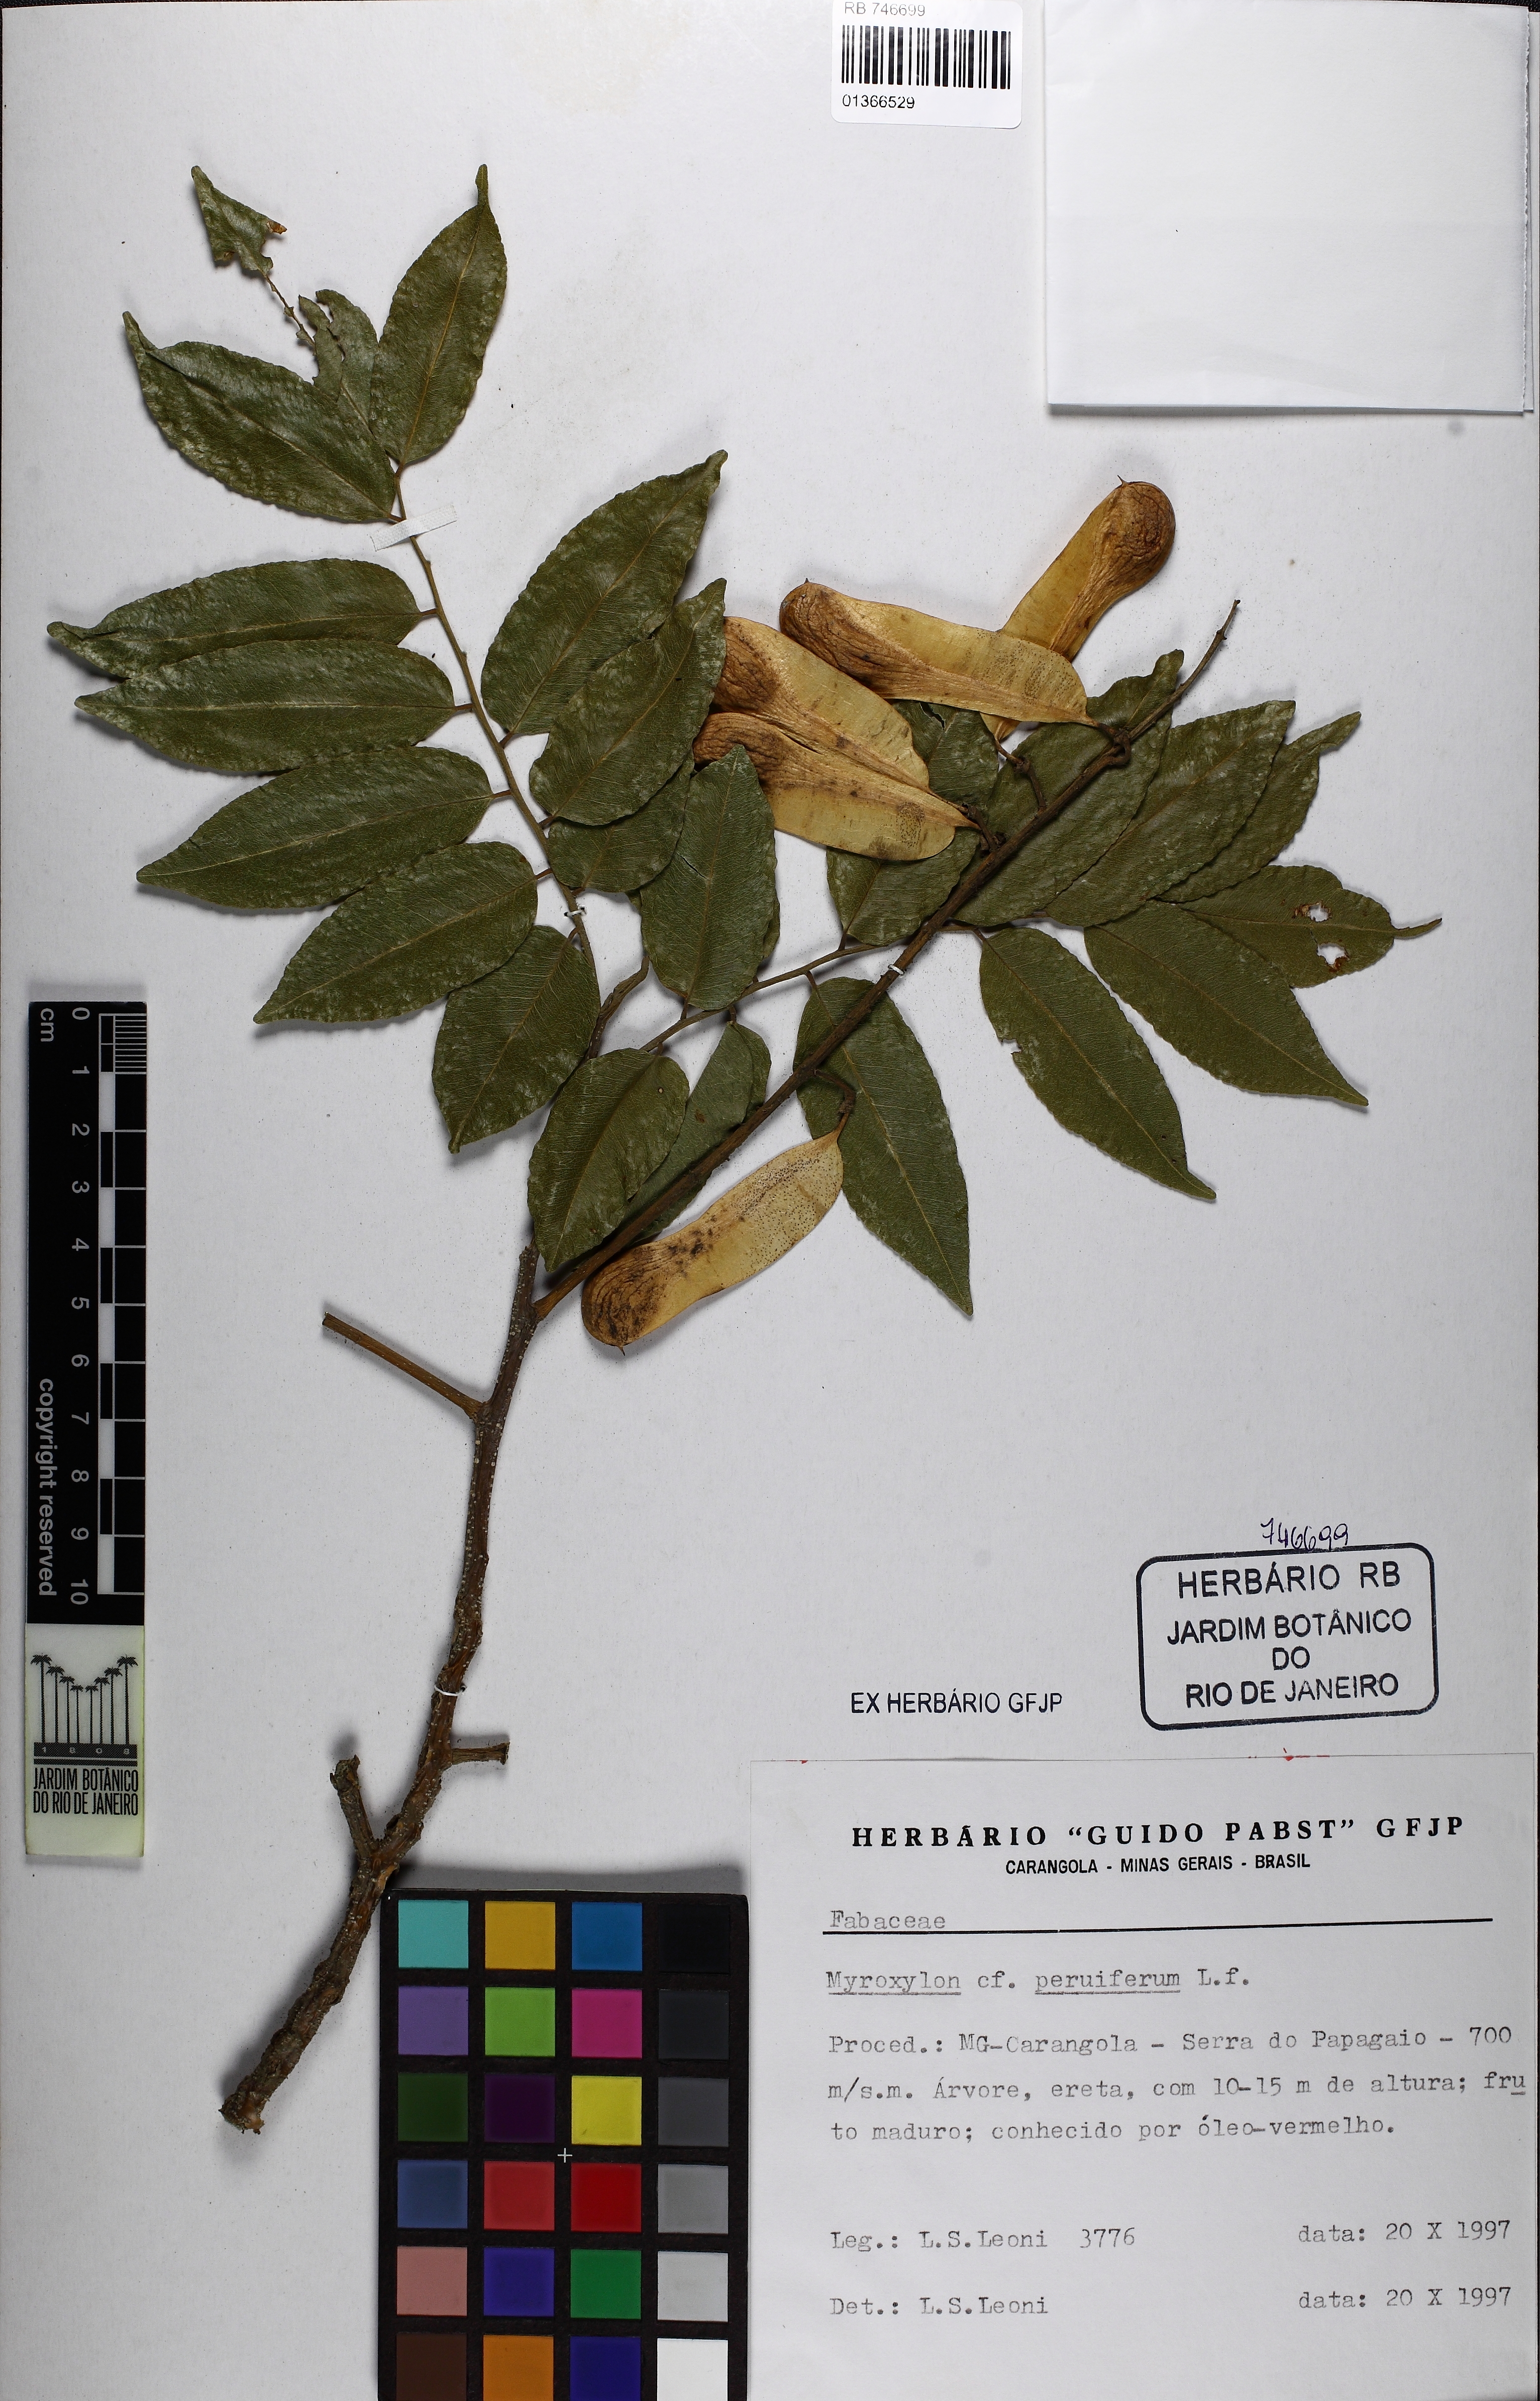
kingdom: Plantae
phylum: Tracheophyta
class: Magnoliopsida
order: Fabales
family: Fabaceae
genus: Myroxylon
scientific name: Myroxylon peruiferum
